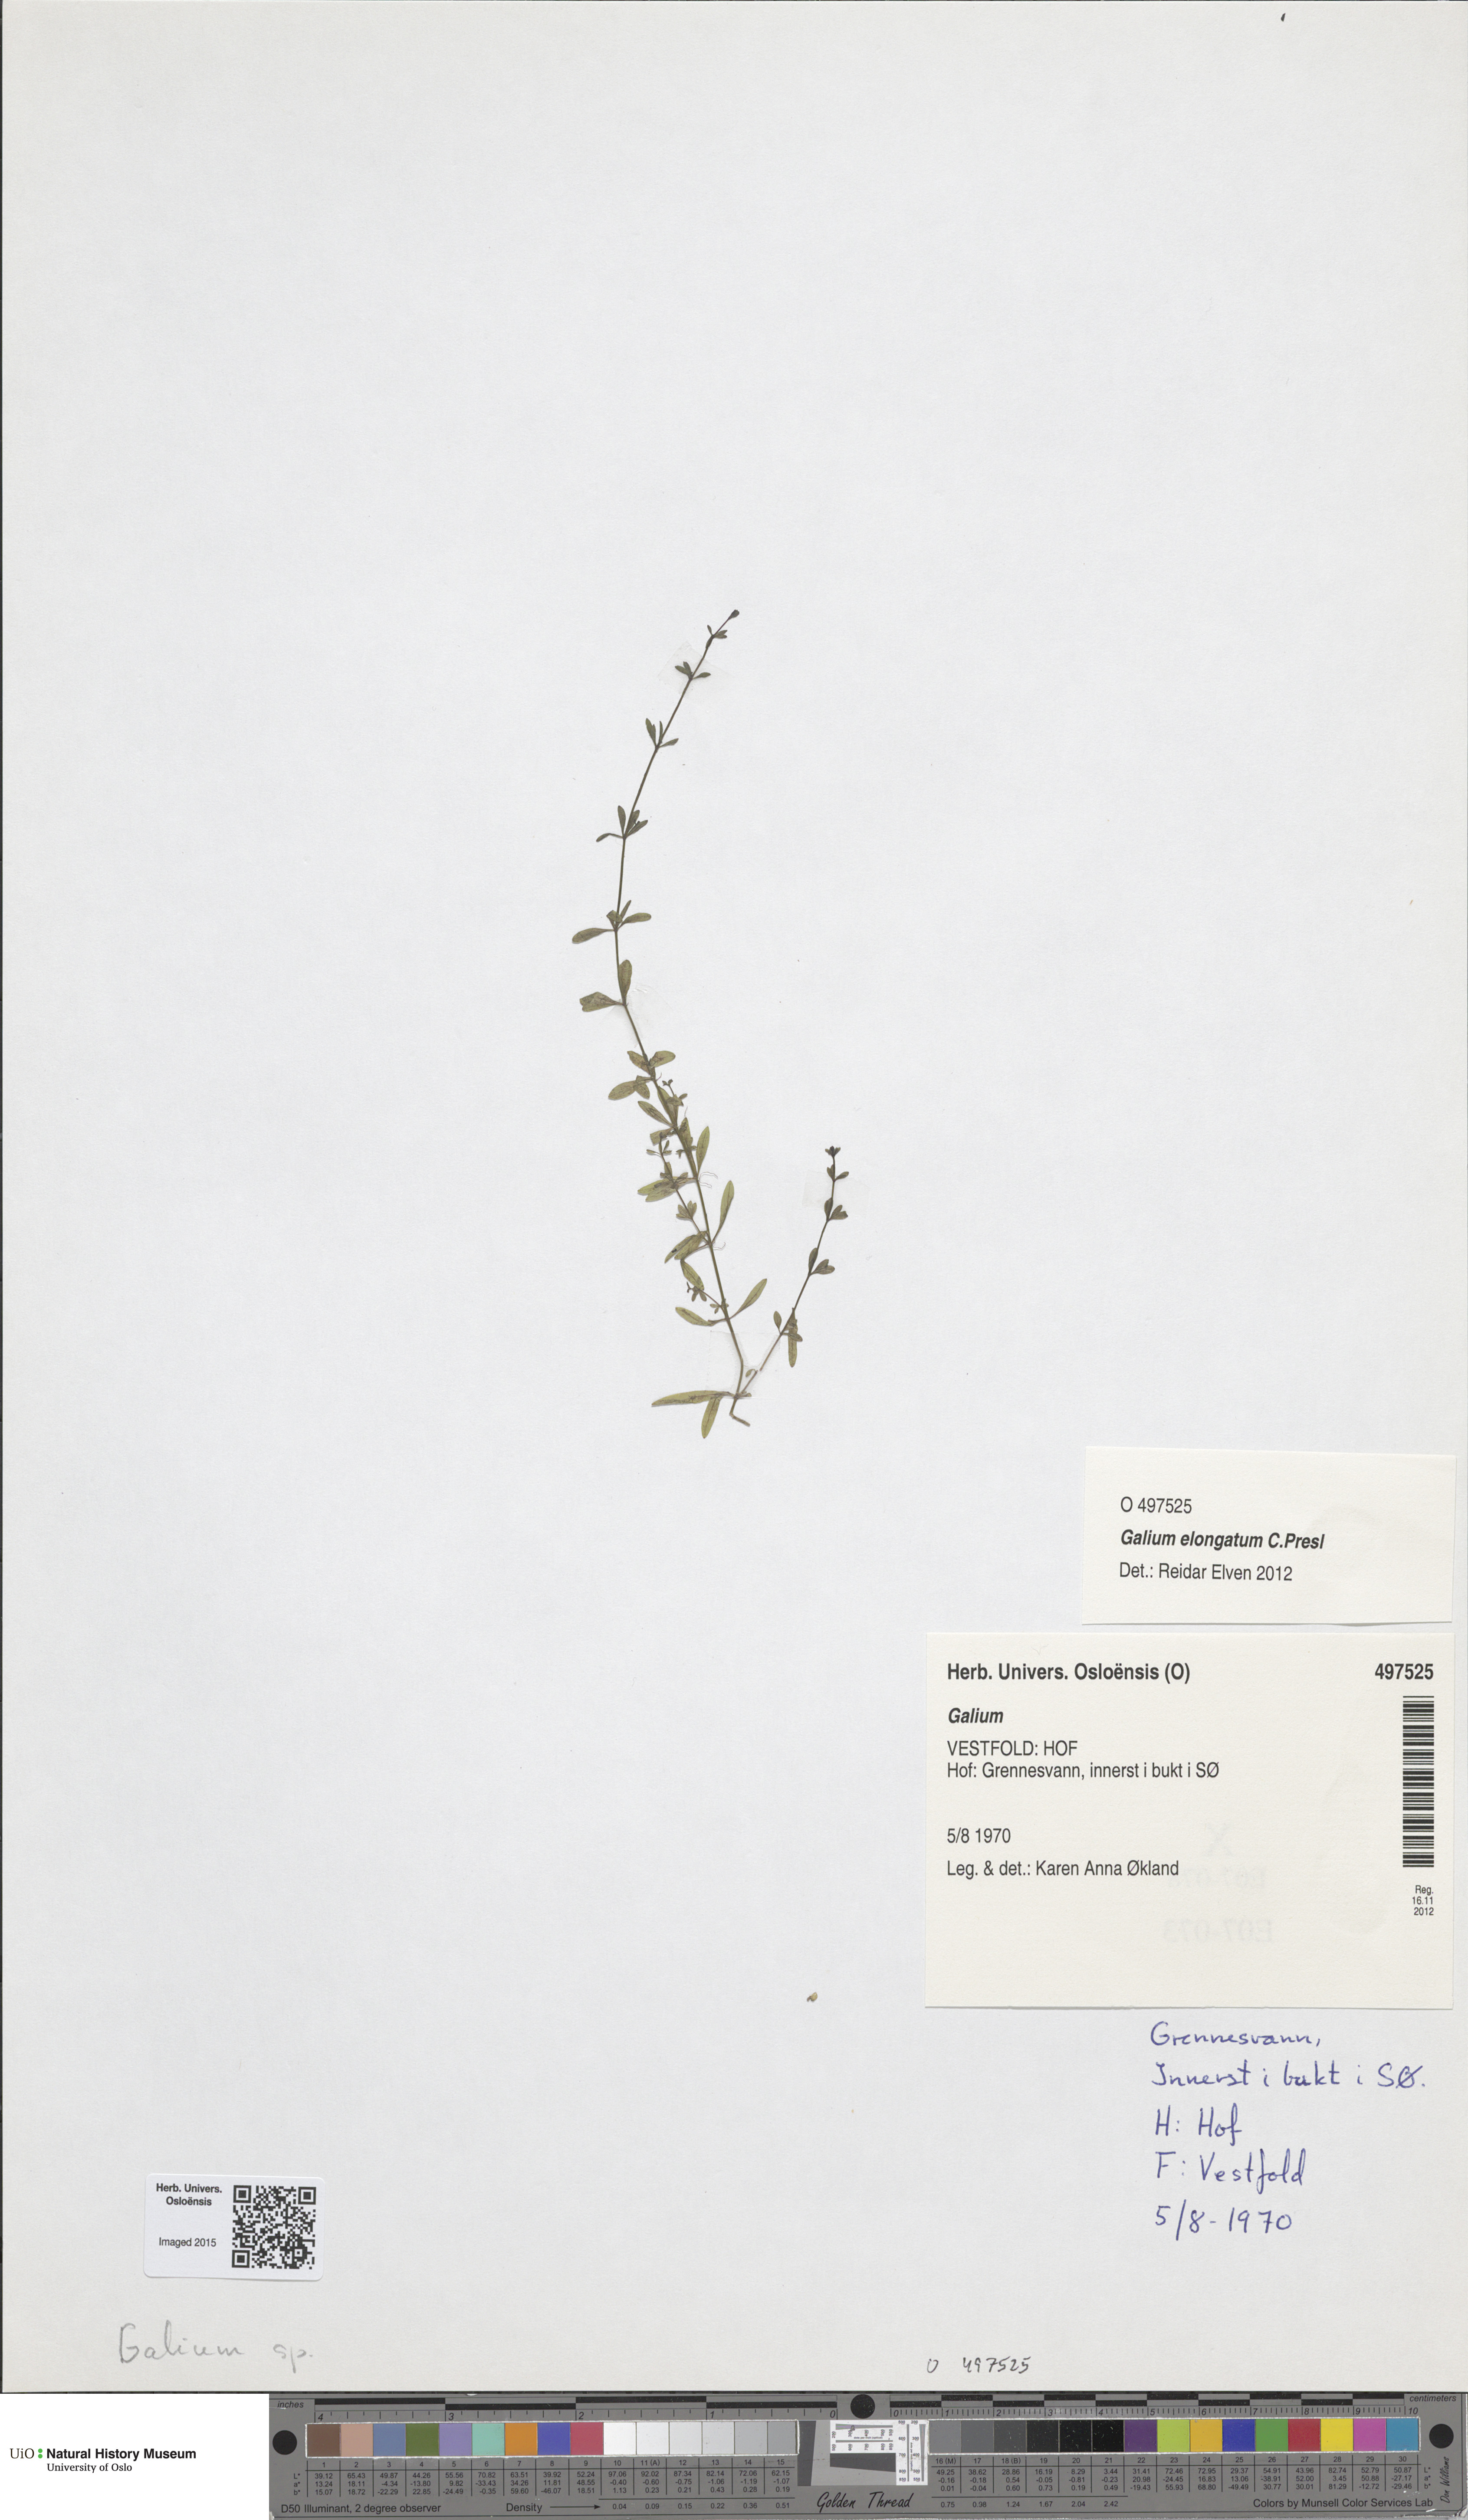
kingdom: Plantae
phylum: Tracheophyta
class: Magnoliopsida
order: Gentianales
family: Rubiaceae
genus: Galium
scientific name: Galium
